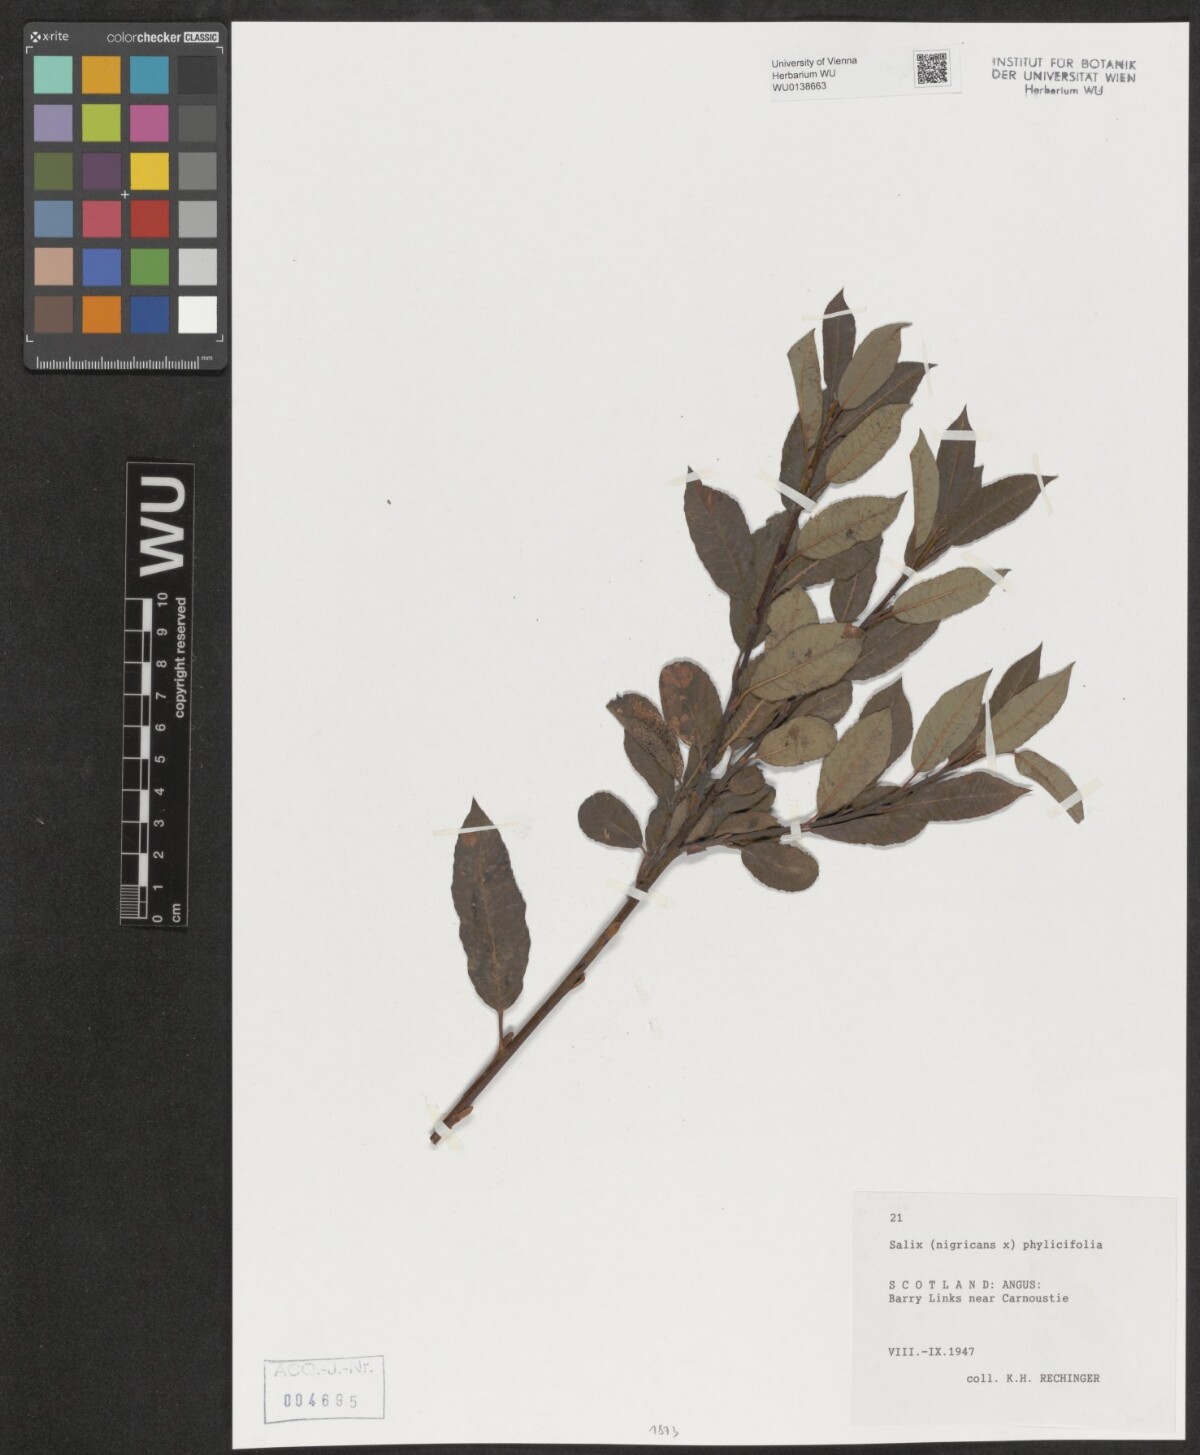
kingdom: Plantae
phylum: Tracheophyta
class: Magnoliopsida
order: Malpighiales
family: Salicaceae
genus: Salix
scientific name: Salix
